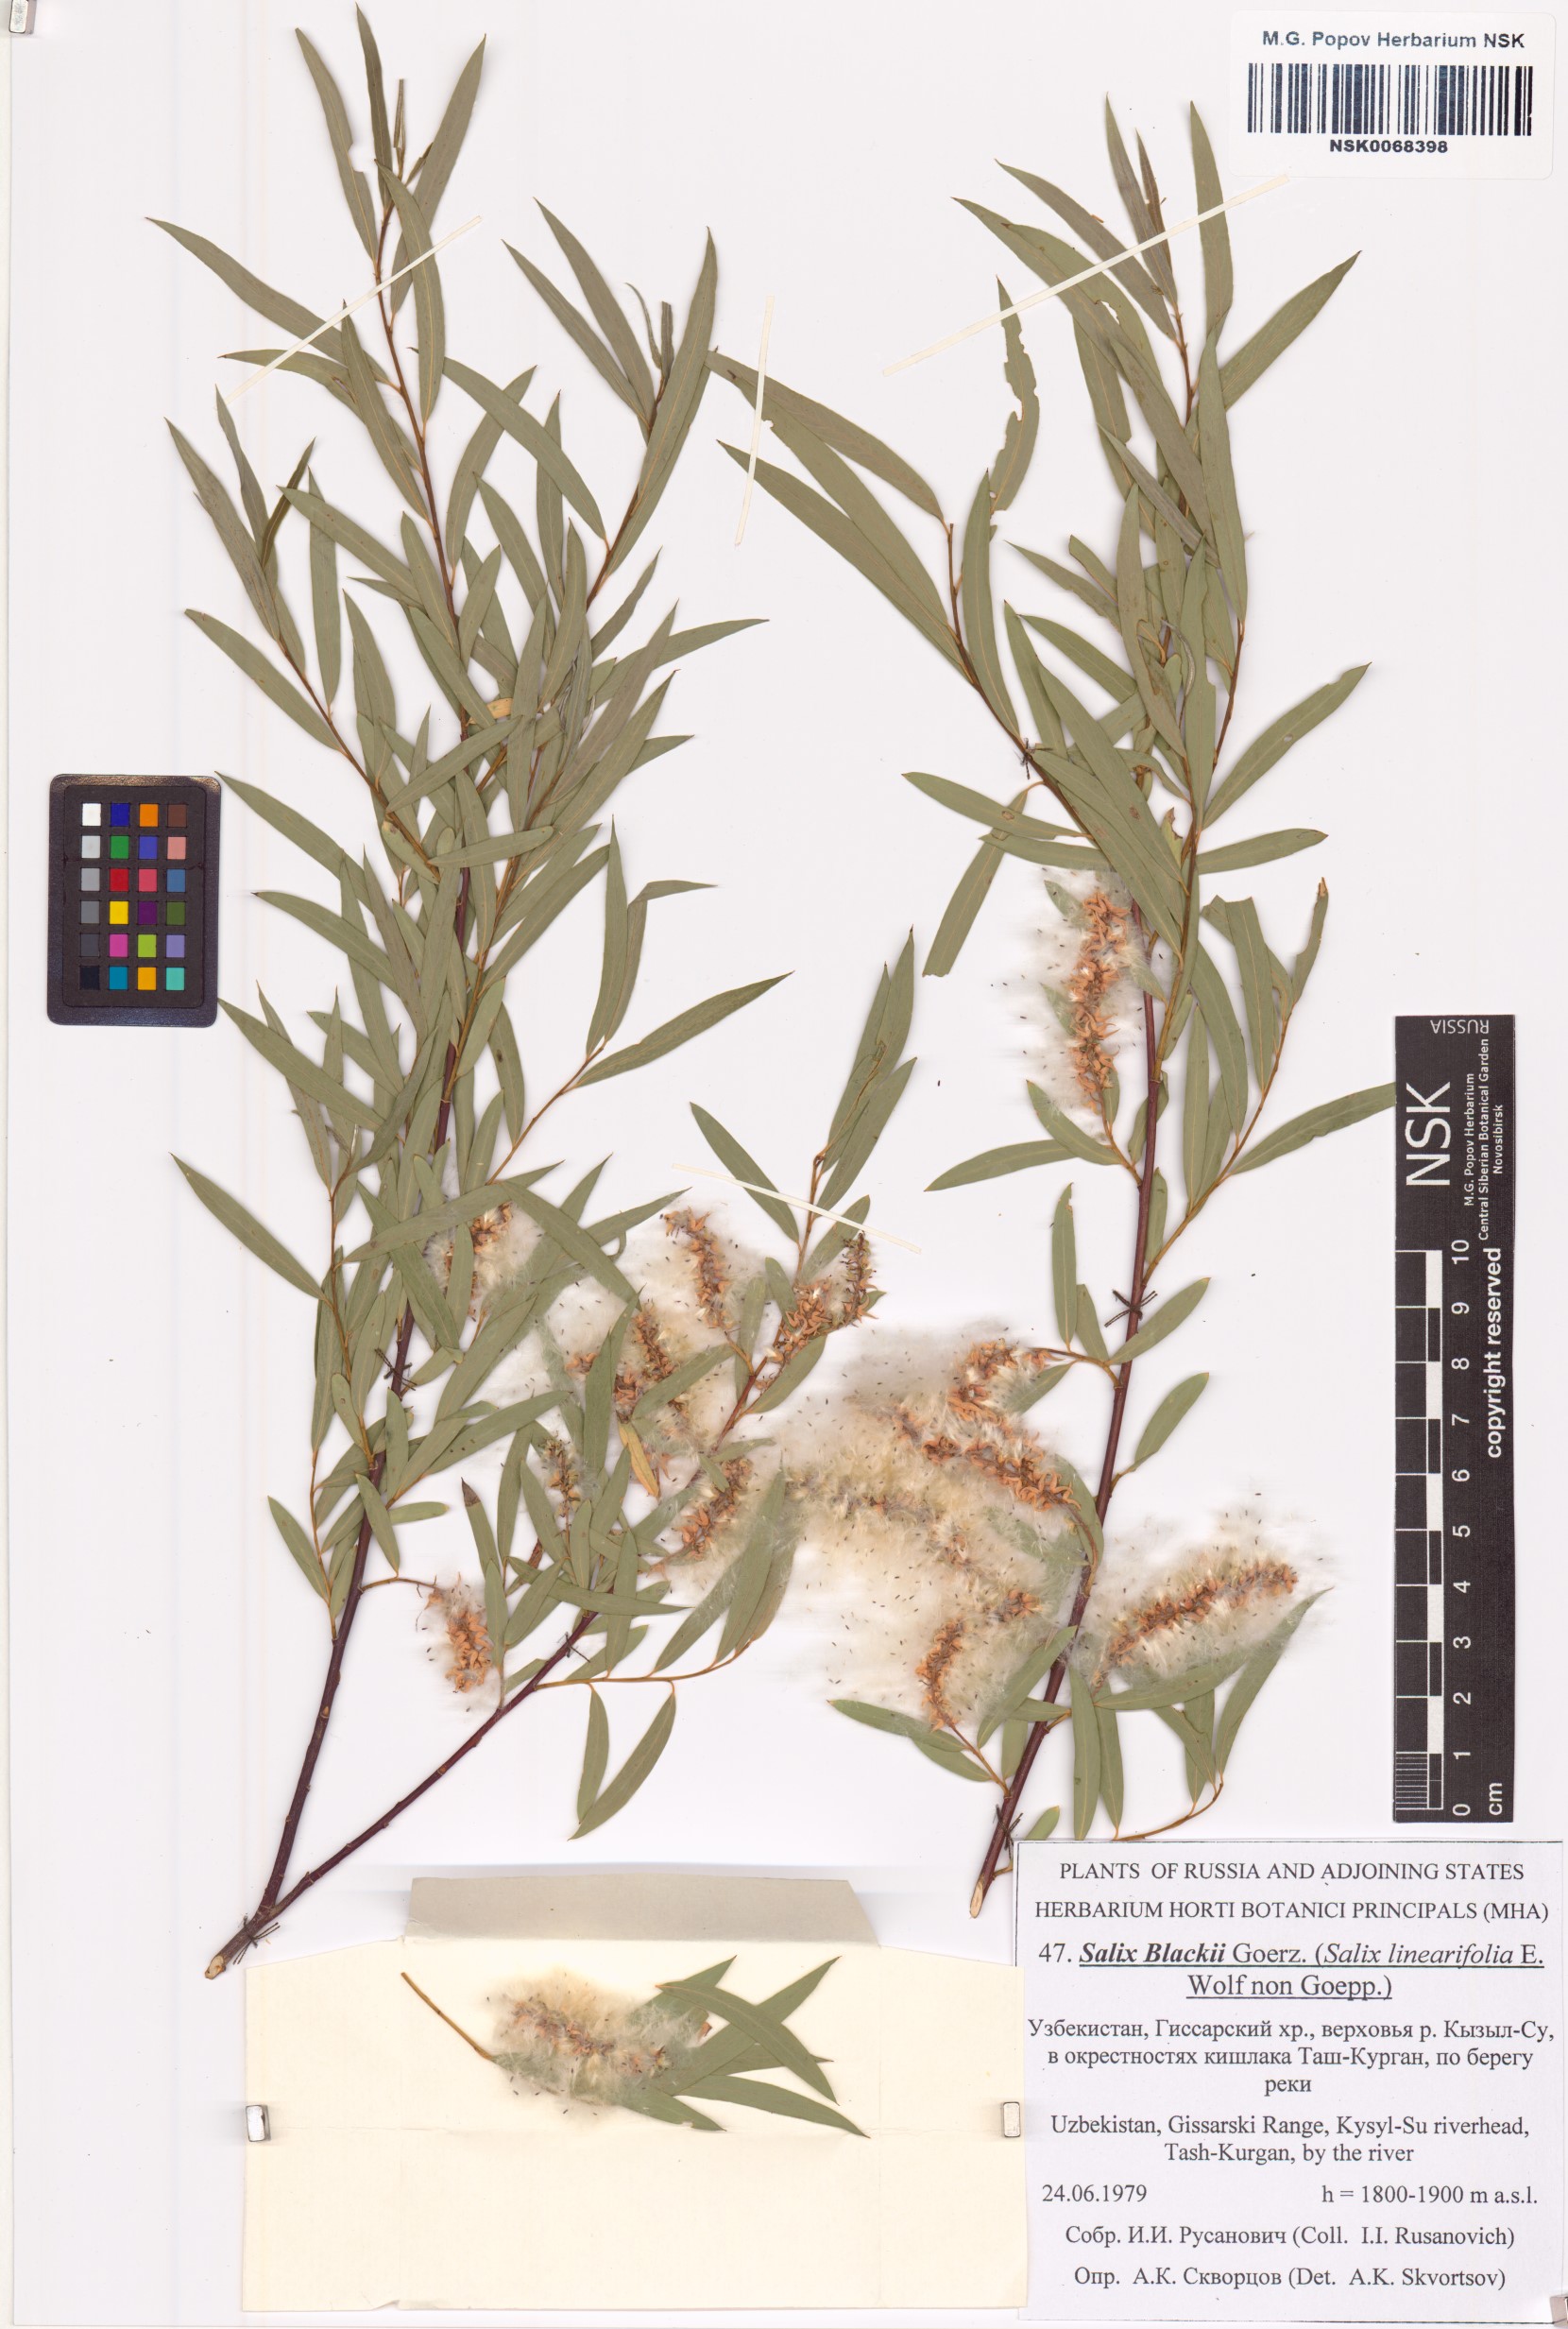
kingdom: Plantae
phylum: Tracheophyta
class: Magnoliopsida
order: Malpighiales
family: Salicaceae
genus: Salix
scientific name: Salix blakii
